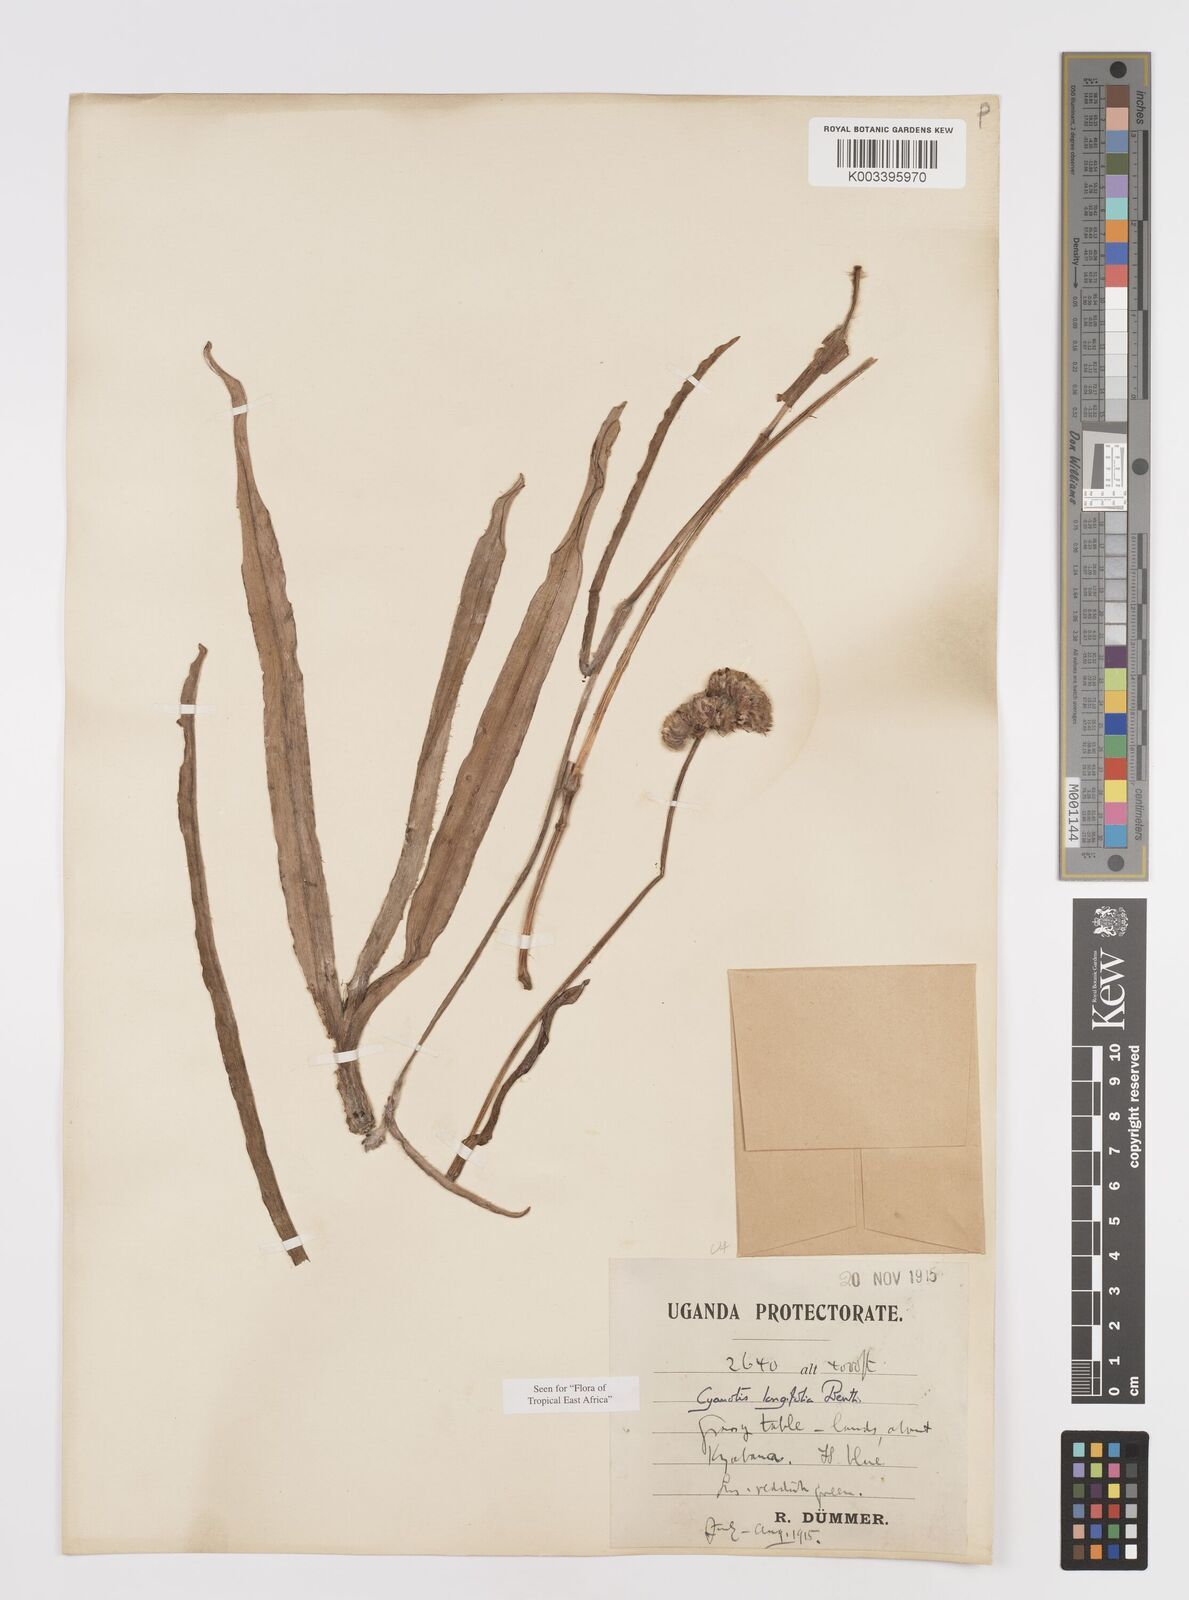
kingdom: Plantae
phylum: Tracheophyta
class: Liliopsida
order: Commelinales
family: Commelinaceae
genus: Cyanotis
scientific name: Cyanotis longifolia
